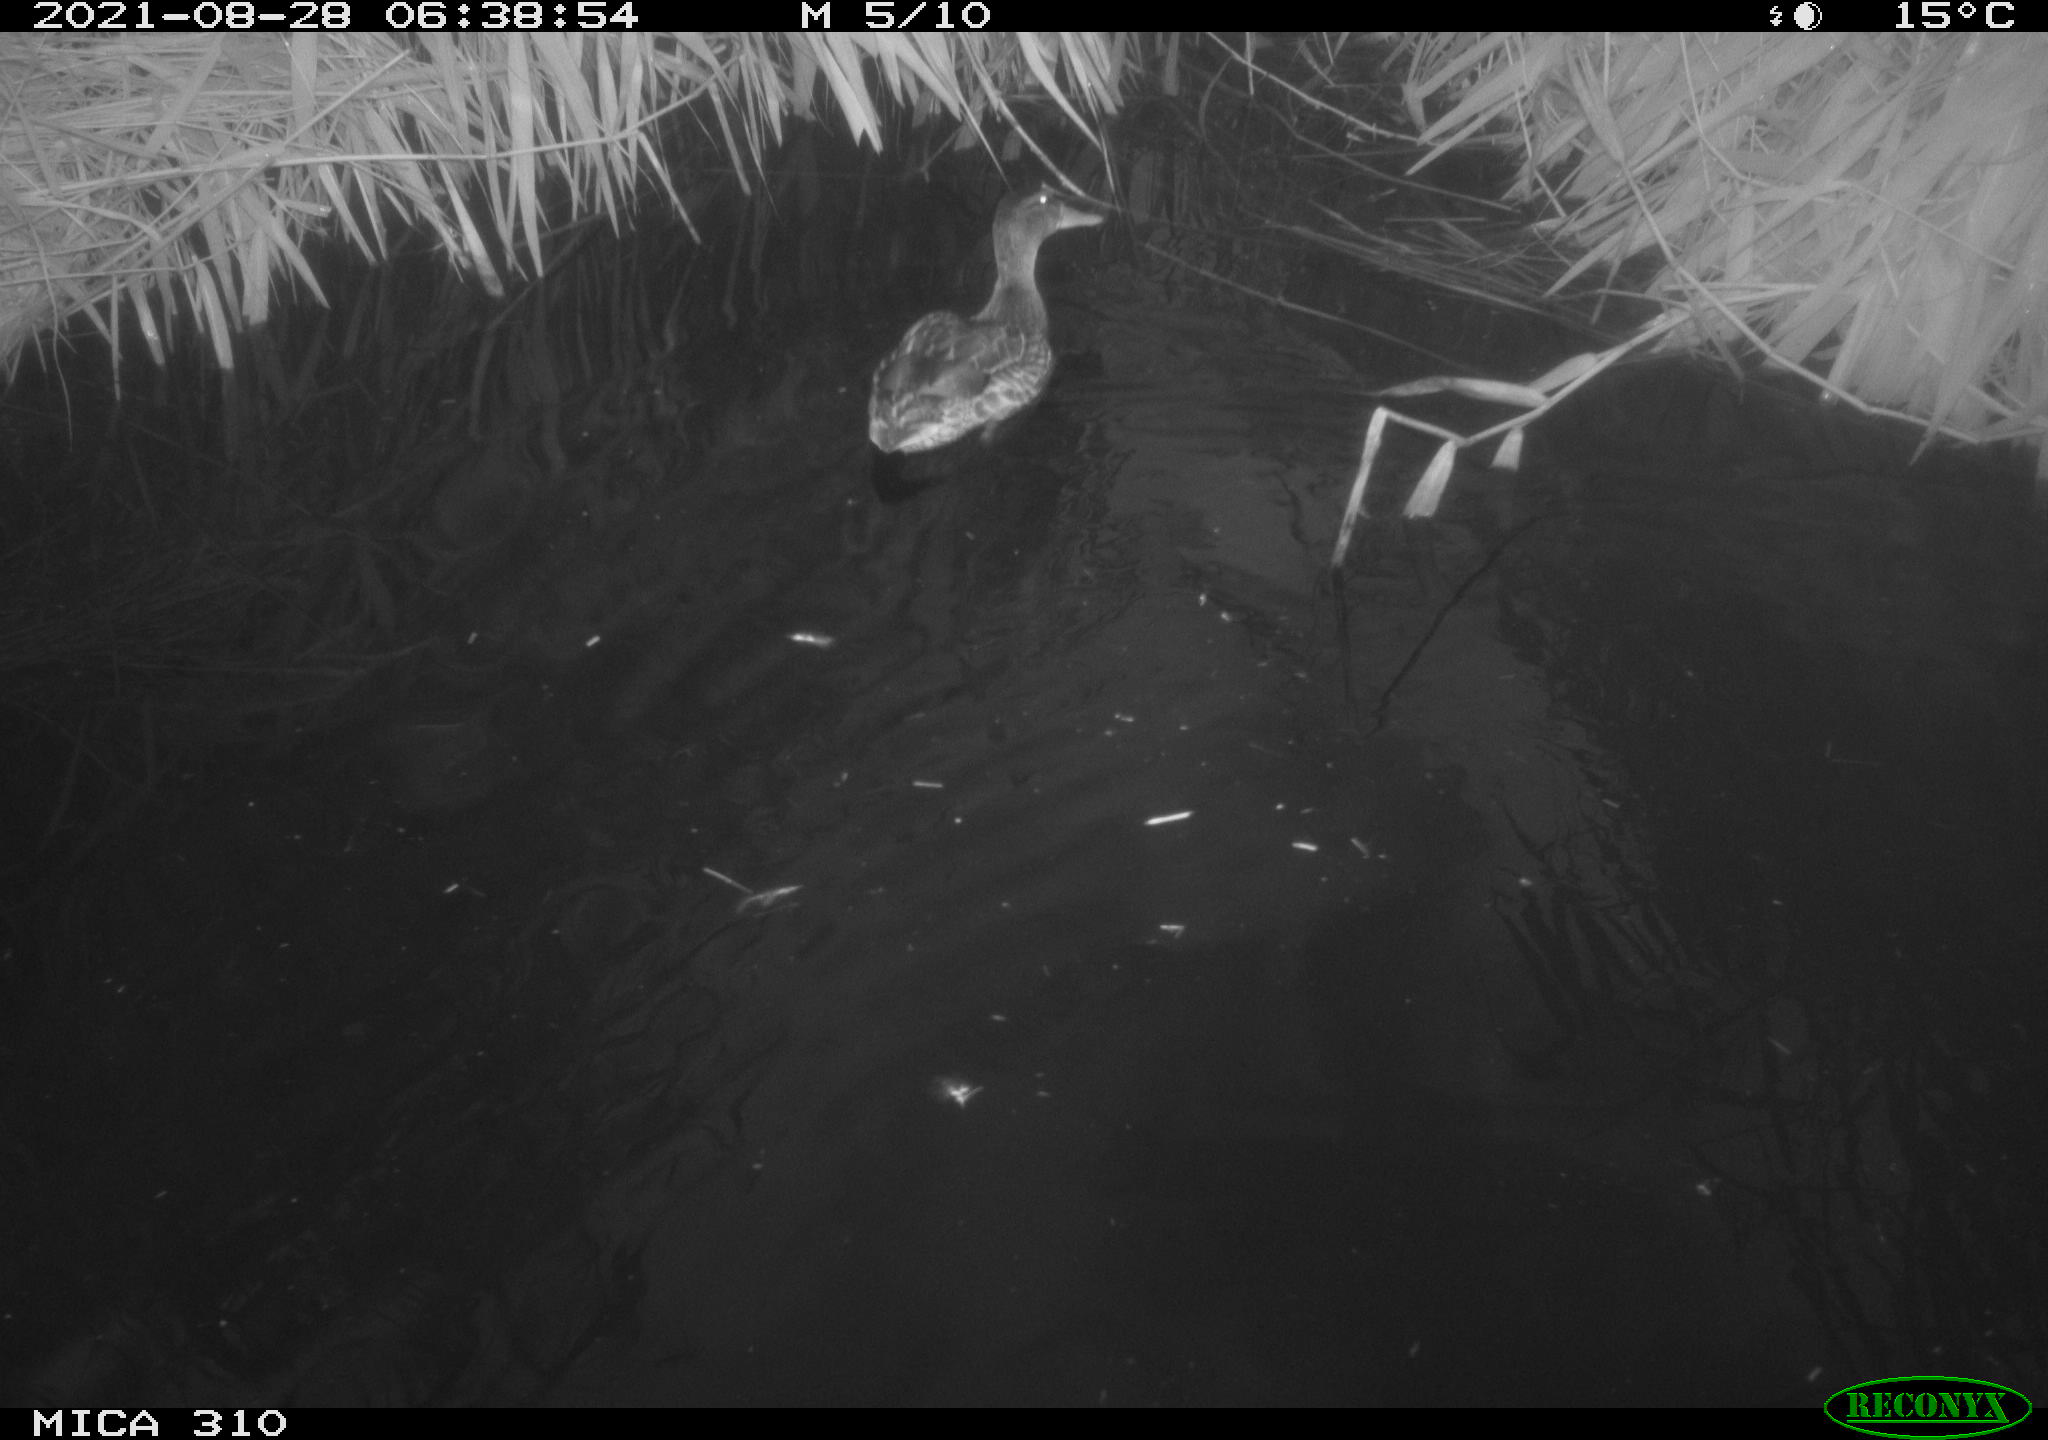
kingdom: Animalia
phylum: Chordata
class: Aves
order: Anseriformes
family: Anatidae
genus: Anas
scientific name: Anas platyrhynchos
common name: Mallard
